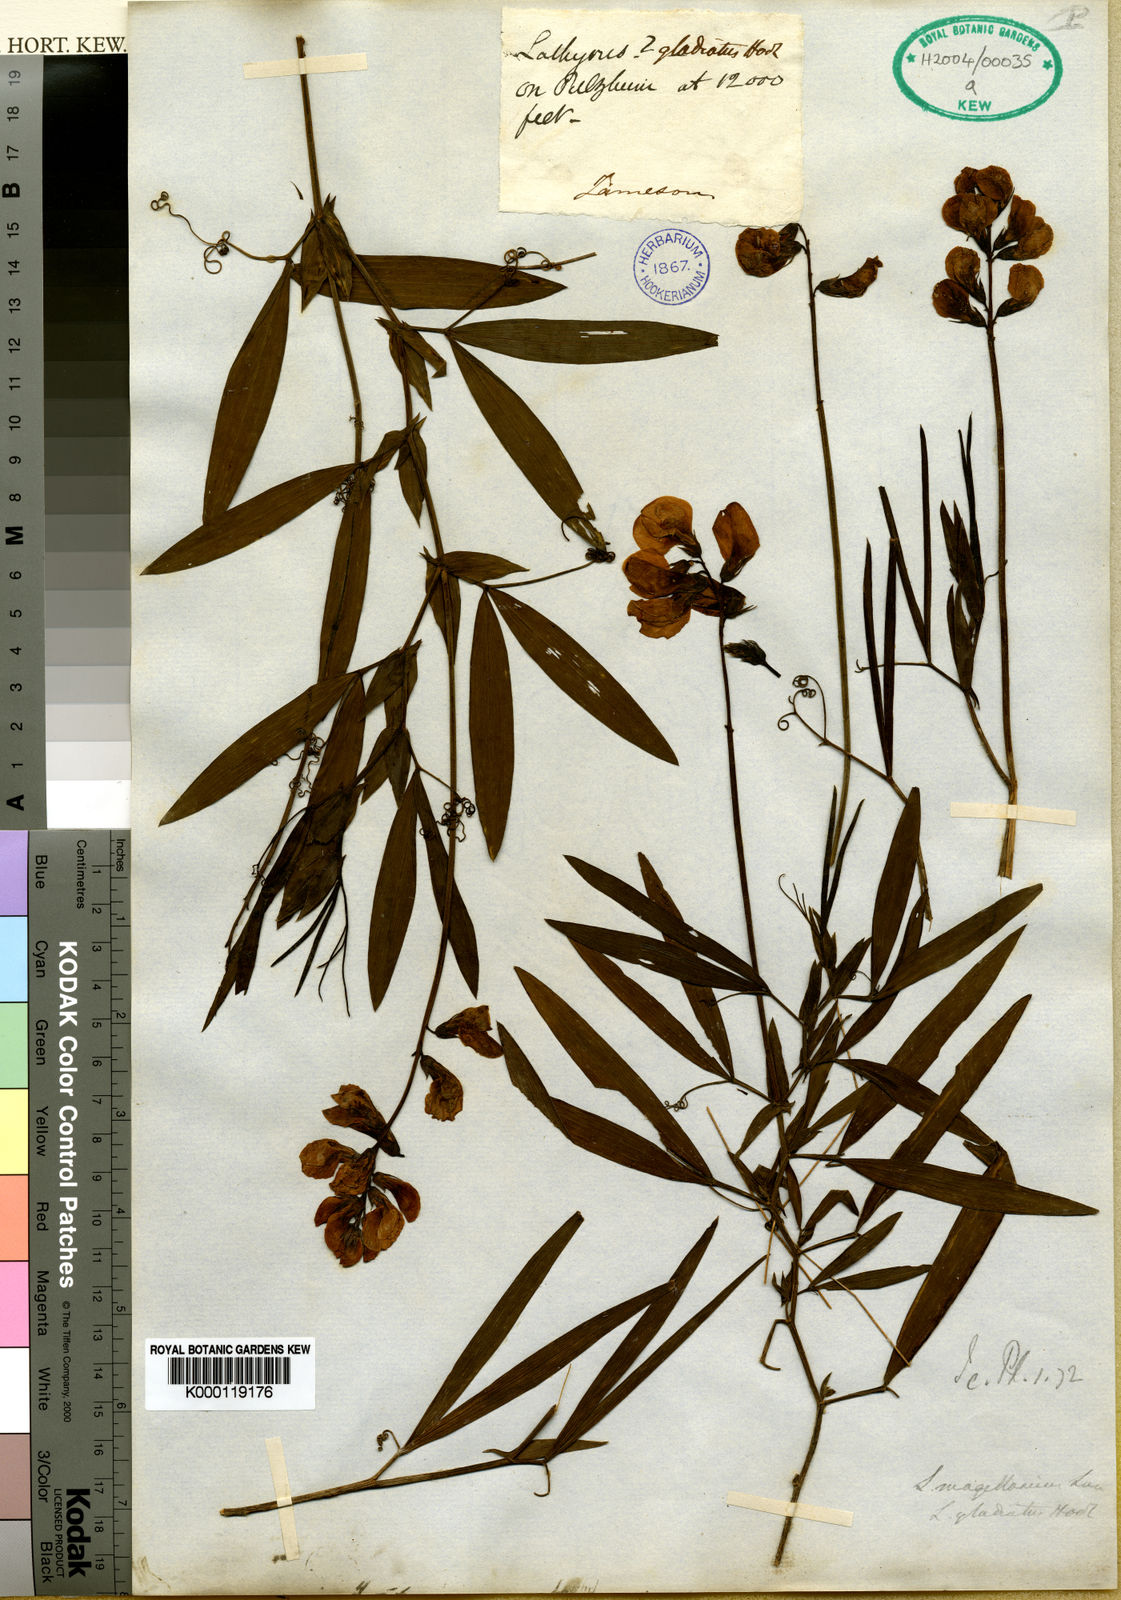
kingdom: Plantae
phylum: Tracheophyta
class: Magnoliopsida
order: Fabales
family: Fabaceae
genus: Lathyrus
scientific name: Lathyrus magellanicus
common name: Lord anson's pea
